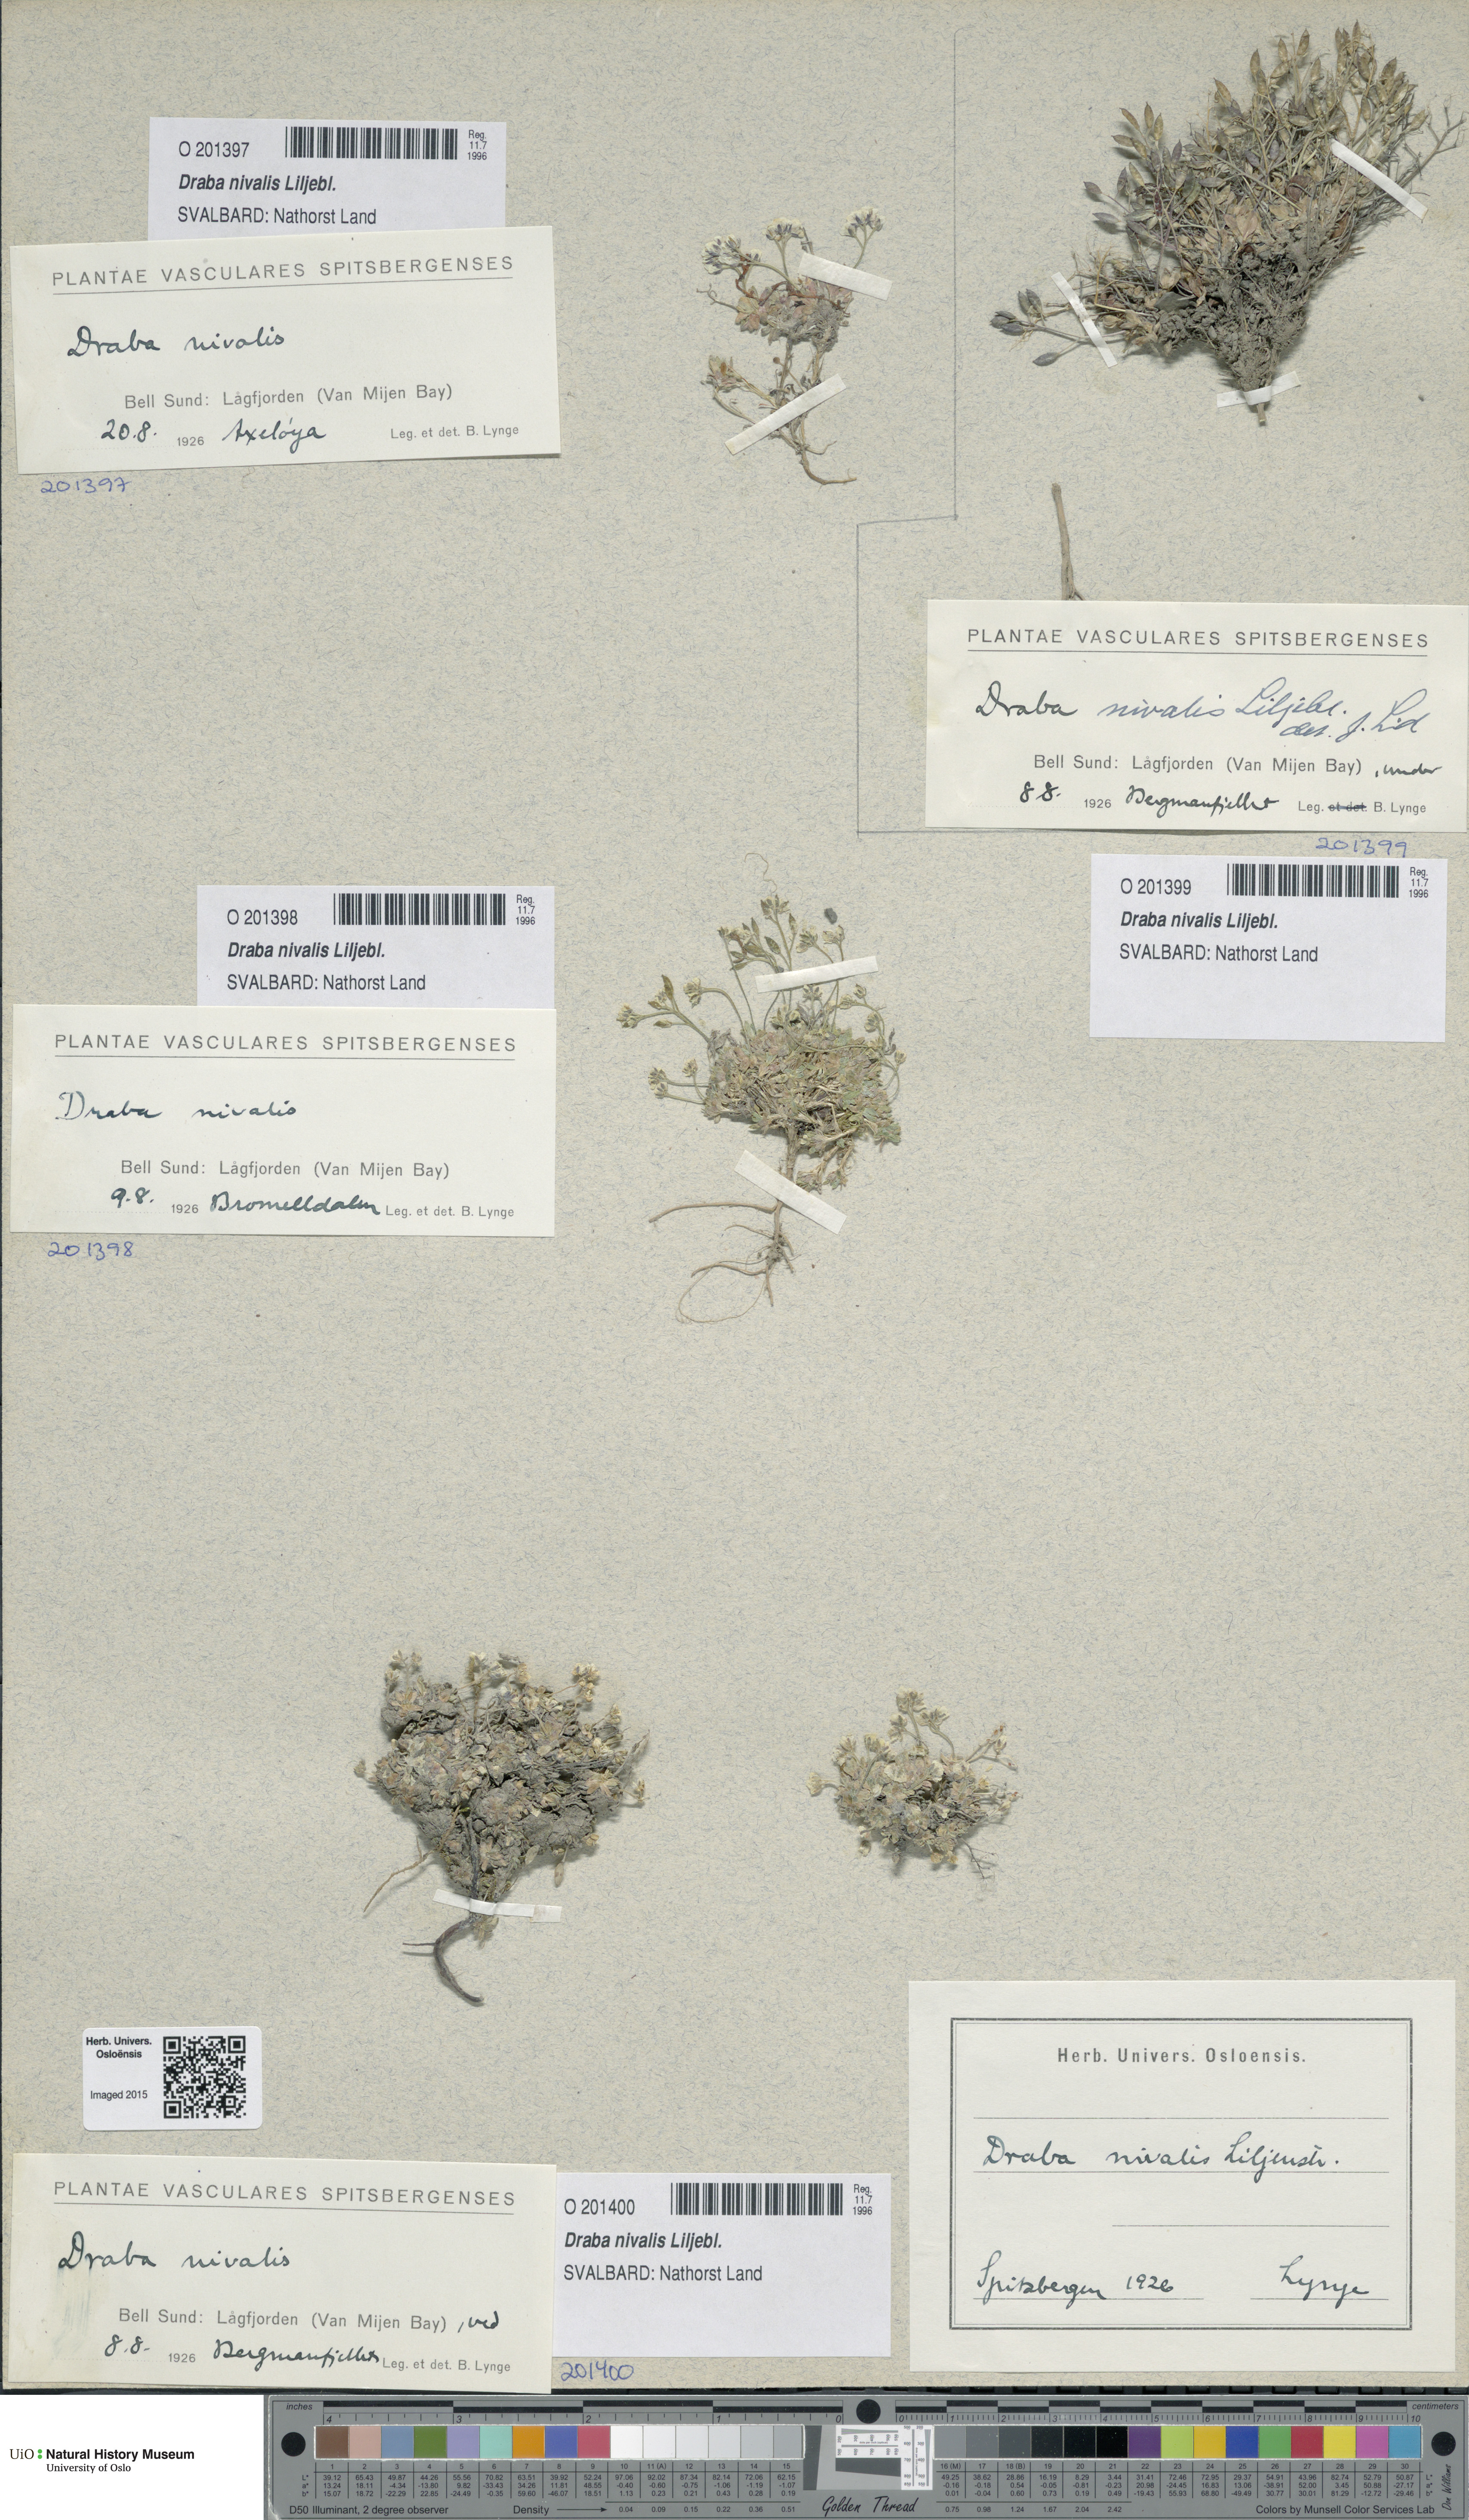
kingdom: Plantae
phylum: Tracheophyta
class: Magnoliopsida
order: Brassicales
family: Brassicaceae
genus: Draba
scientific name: Draba nivalis
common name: Snow draba
